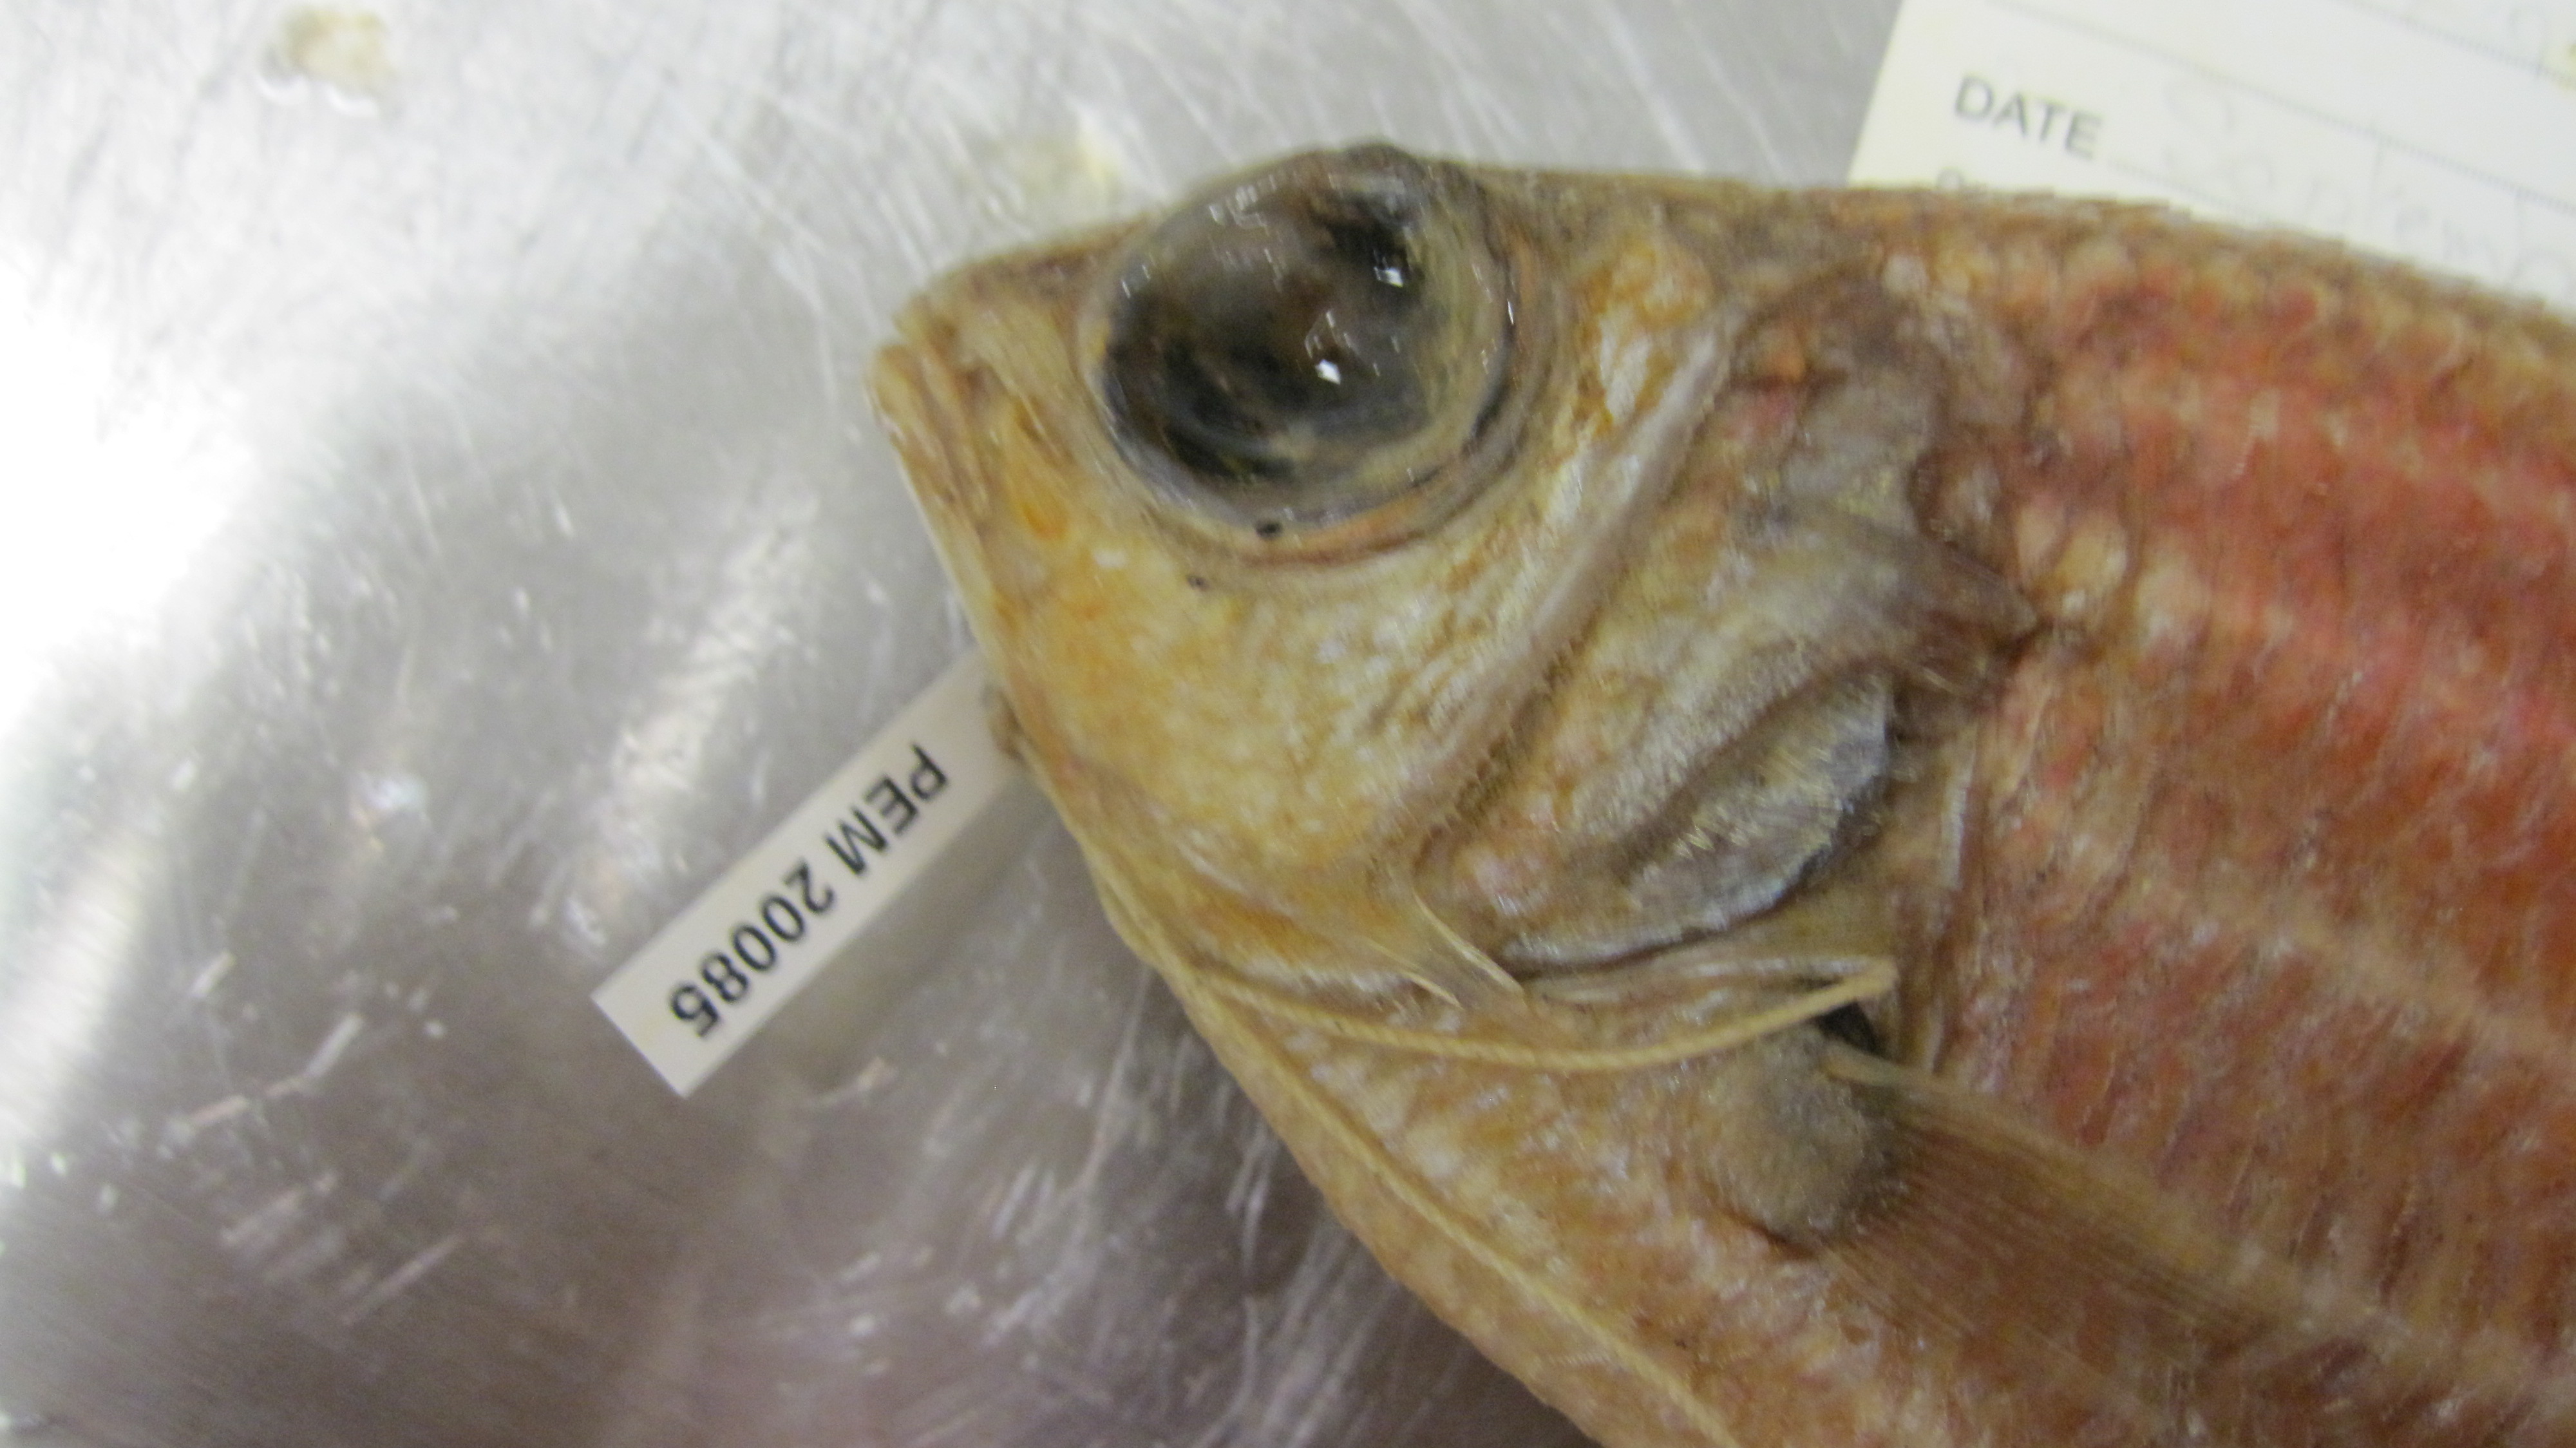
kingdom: Animalia
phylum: Chordata
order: Beryciformes
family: Holocentridae
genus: Sargocentron
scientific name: Sargocentron diadema
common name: Crown squirrelfish
